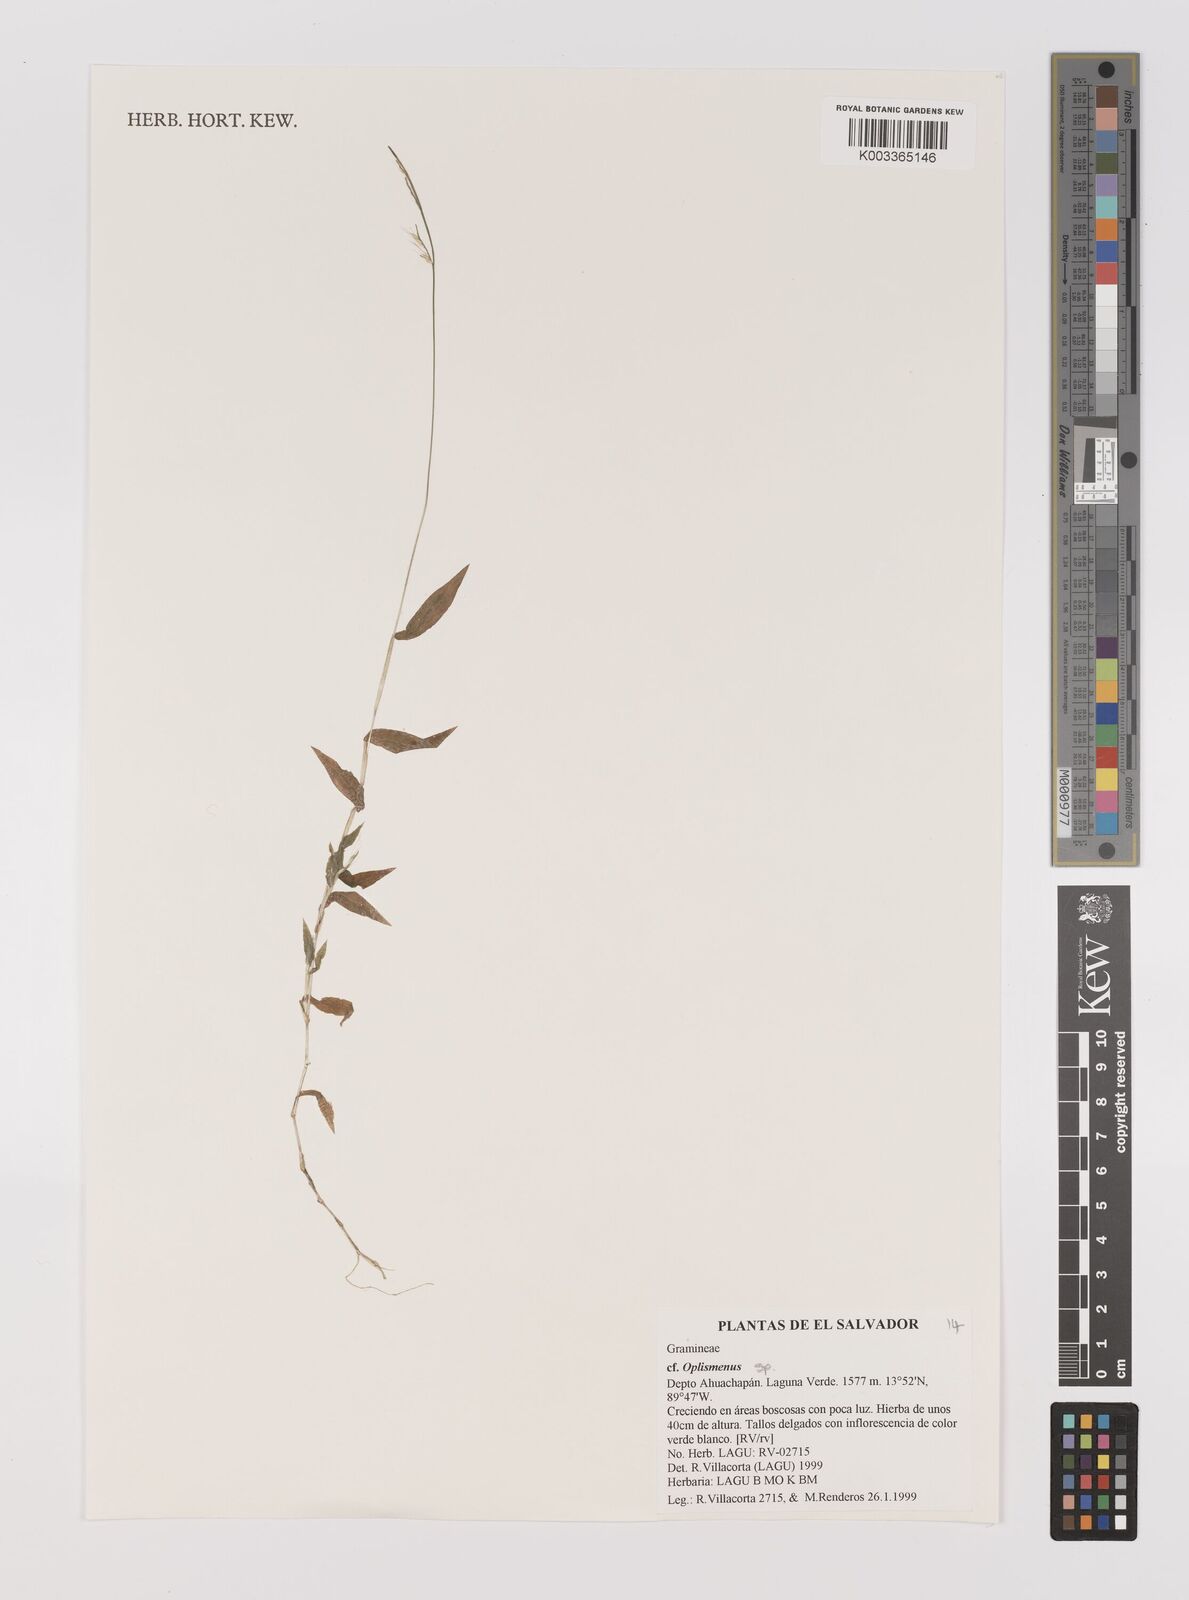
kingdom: Plantae
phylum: Tracheophyta
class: Liliopsida
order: Poales
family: Poaceae
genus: Oplismenus
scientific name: Oplismenus hirtellus
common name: Basketgrass
